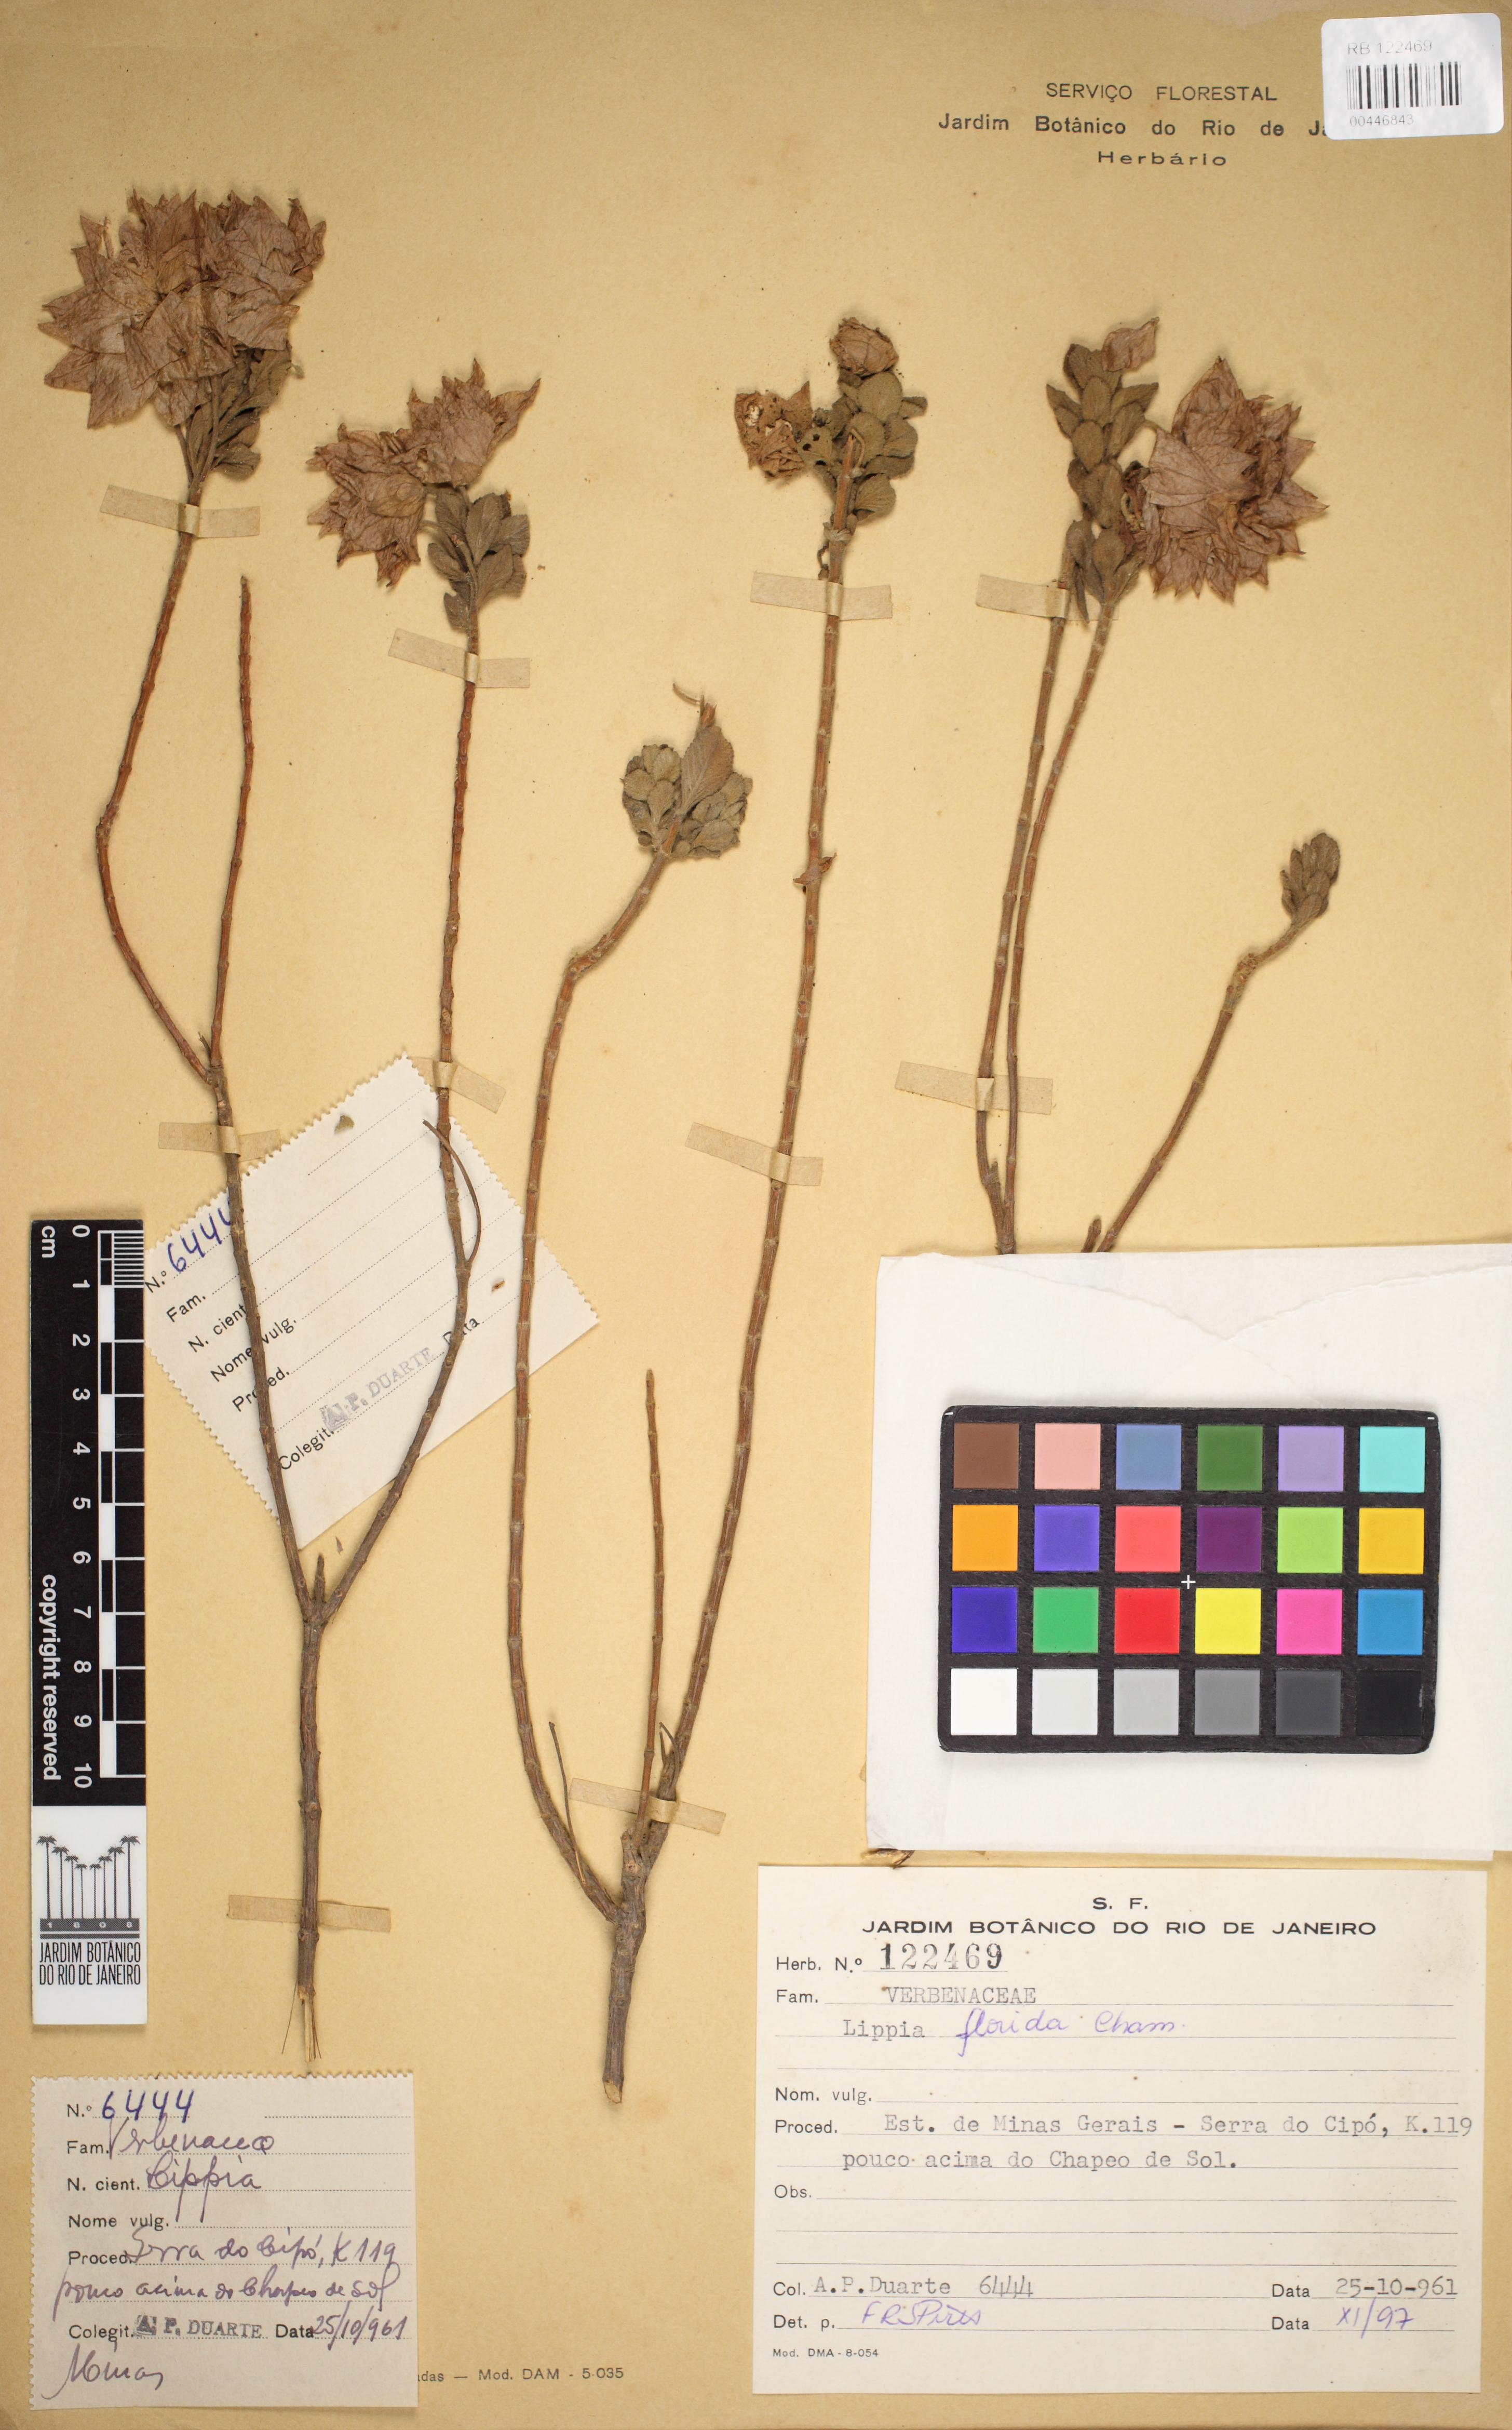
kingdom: Plantae
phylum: Tracheophyta
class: Magnoliopsida
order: Lamiales
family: Verbenaceae
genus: Lippia
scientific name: Lippia florida
